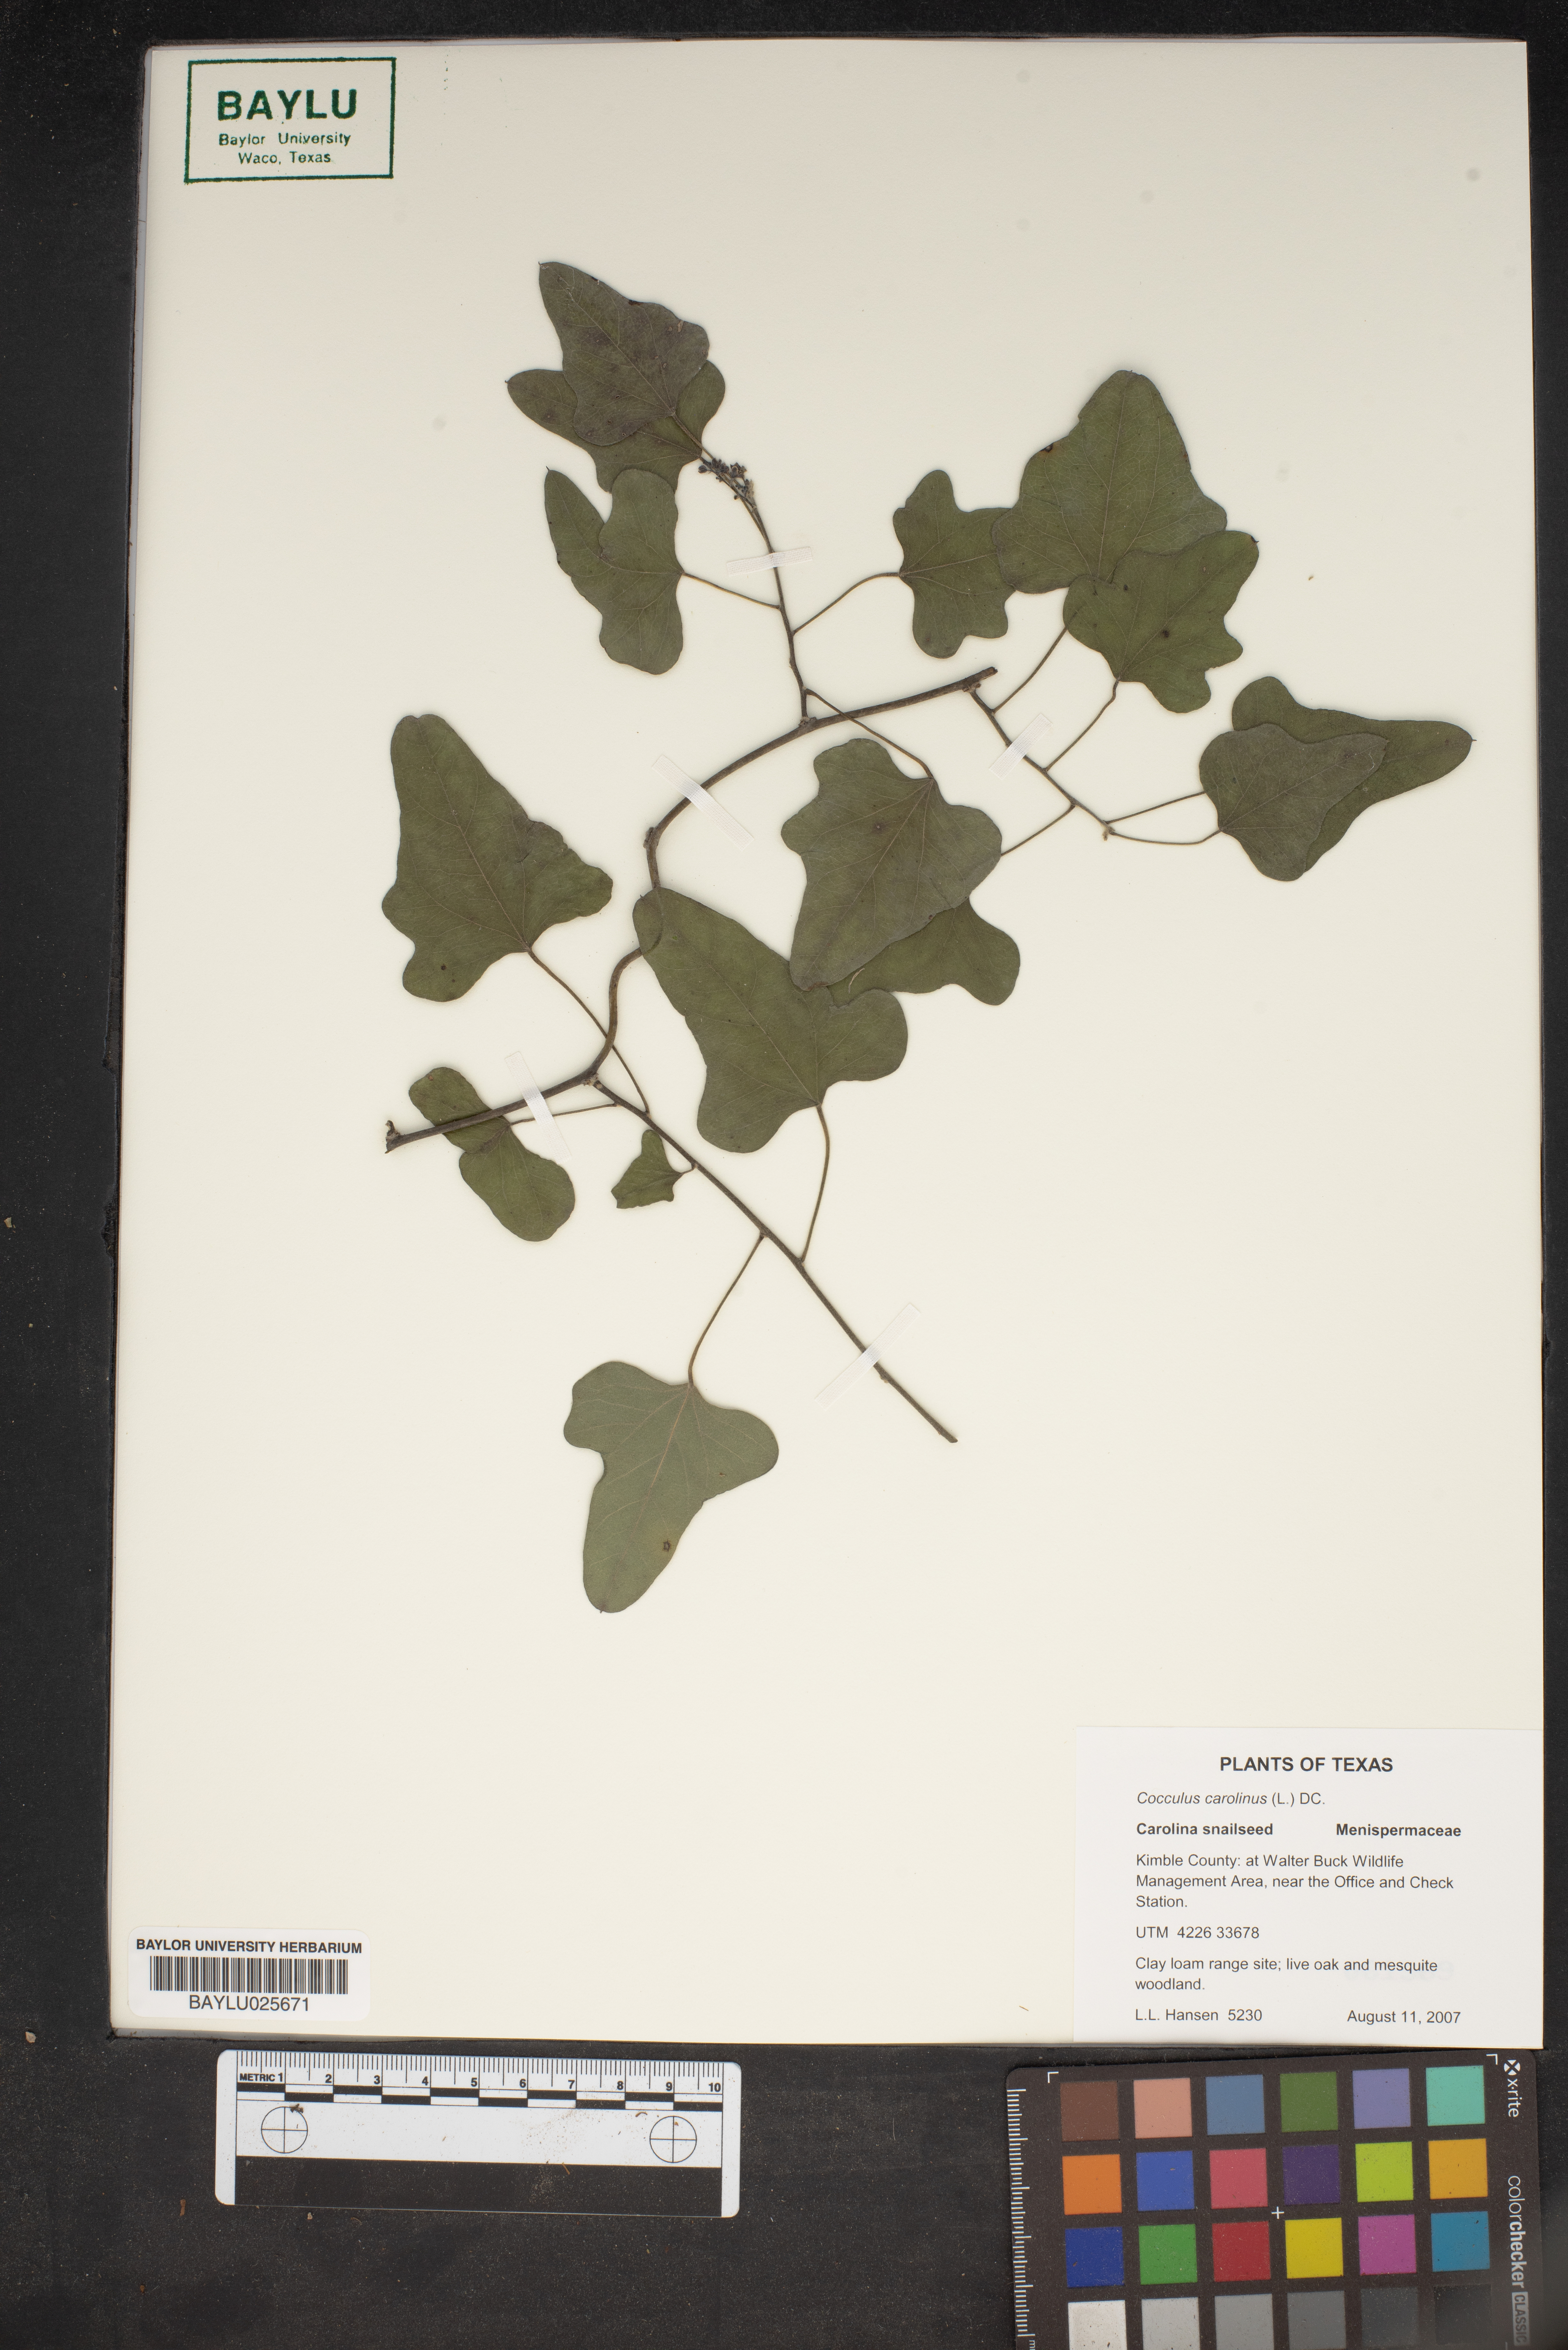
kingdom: Plantae
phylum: Tracheophyta
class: Magnoliopsida
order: Ranunculales
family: Menispermaceae
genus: Cocculus
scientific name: Cocculus carolinus
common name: Carolina moonseed
